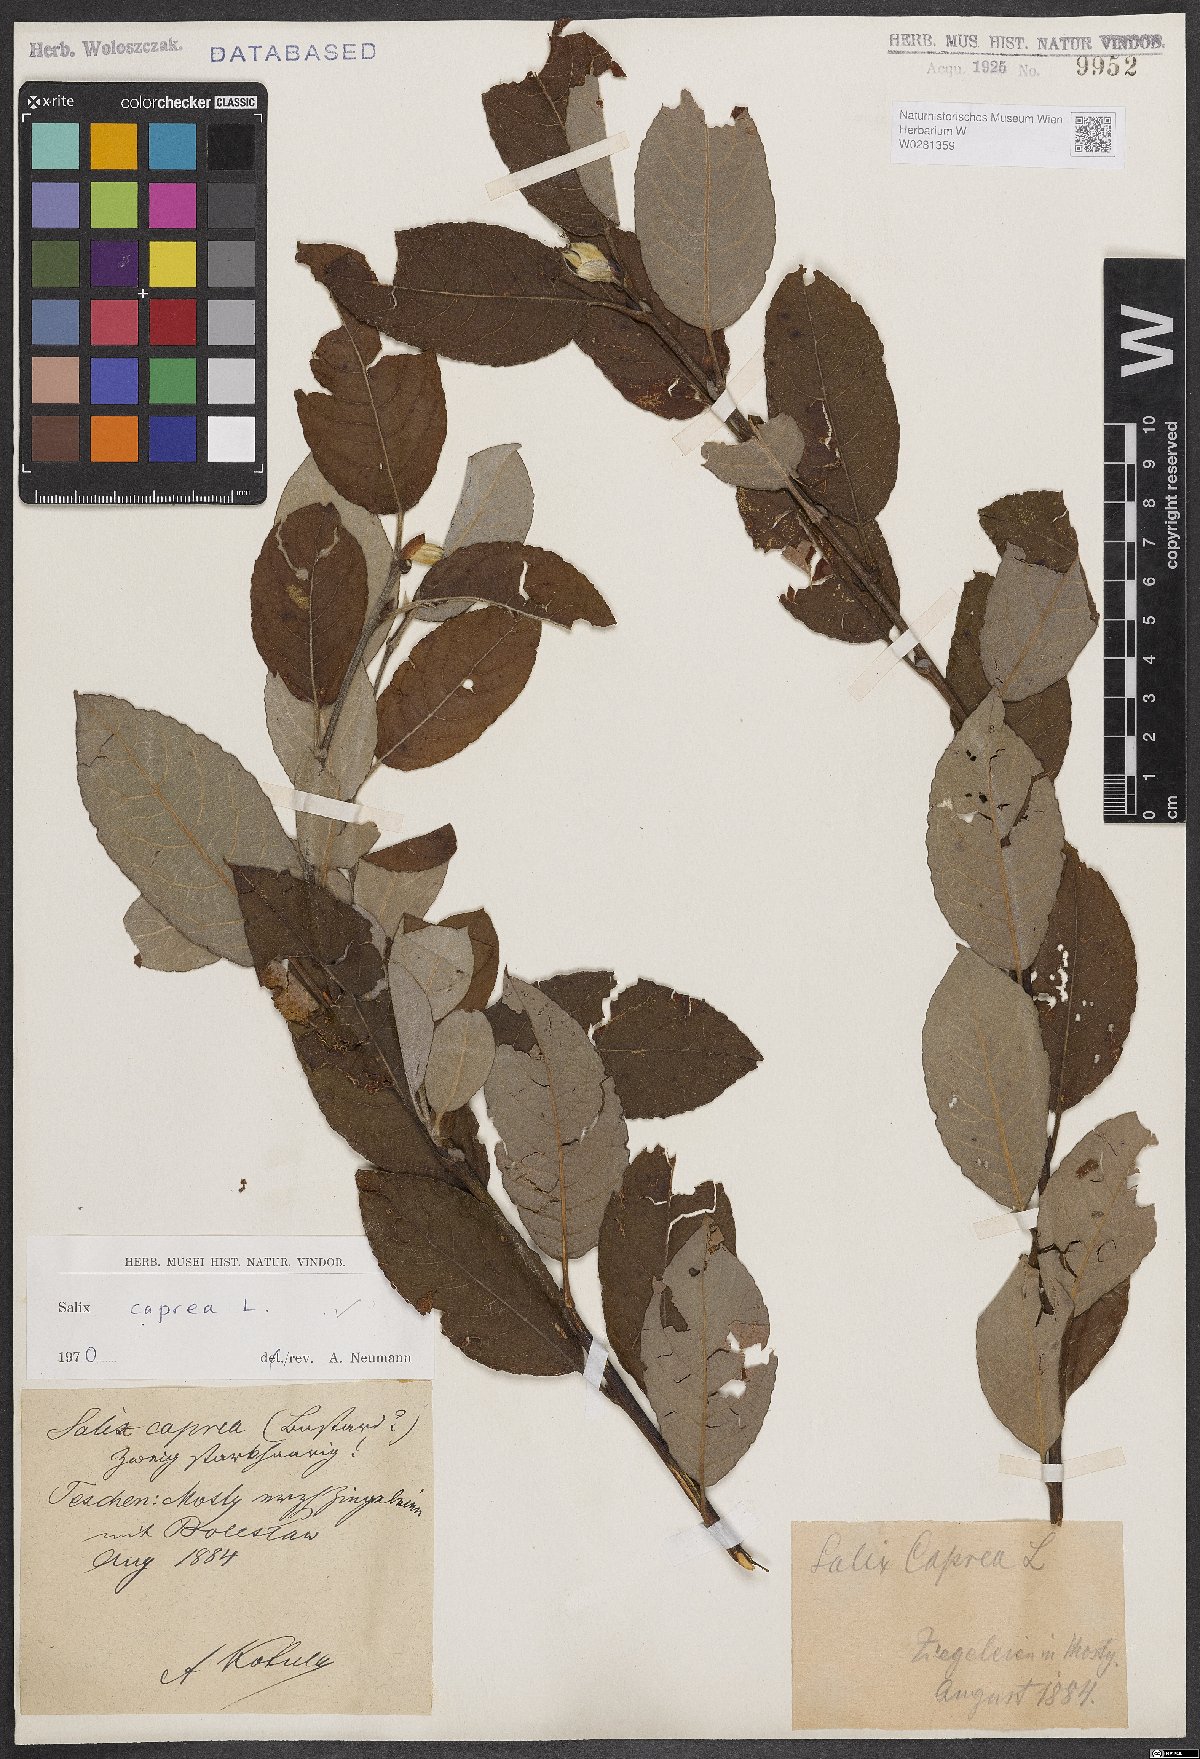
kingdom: Plantae
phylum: Tracheophyta
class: Magnoliopsida
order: Malpighiales
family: Salicaceae
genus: Salix
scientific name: Salix caprea
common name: Goat willow
